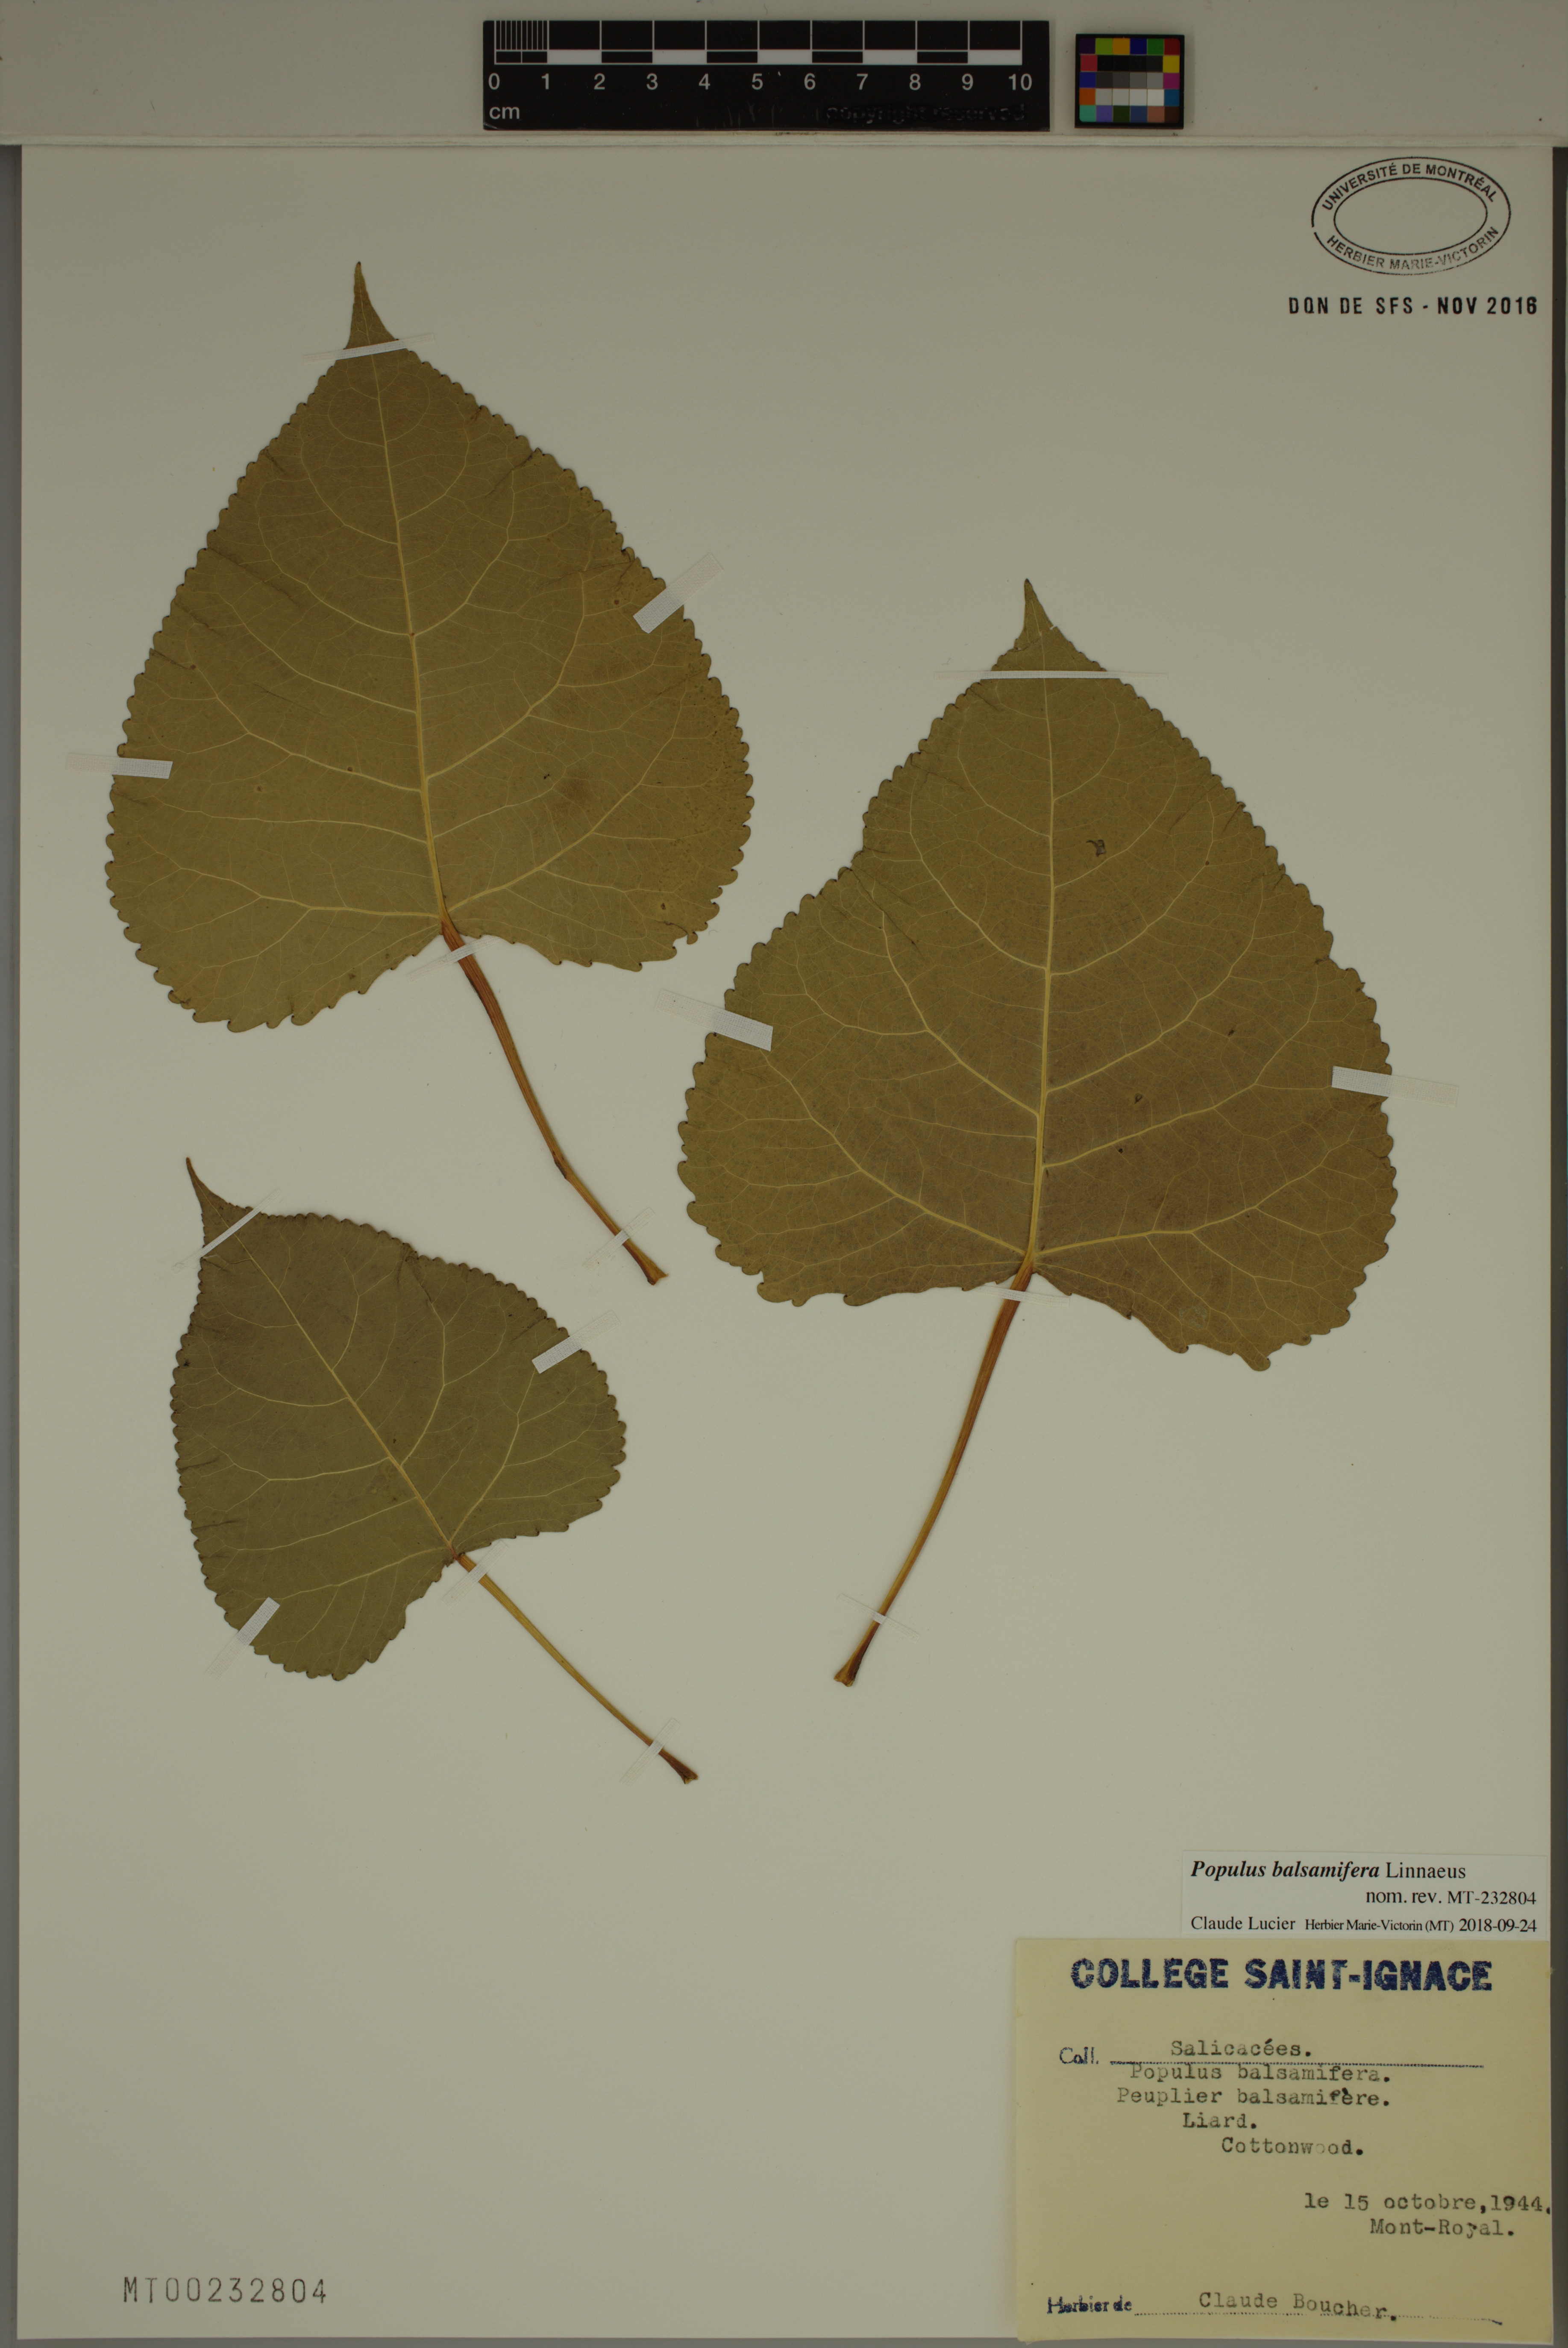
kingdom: Plantae
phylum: Tracheophyta
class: Magnoliopsida
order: Malpighiales
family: Salicaceae
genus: Populus
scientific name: Populus balsamifera
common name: Balsam poplar
